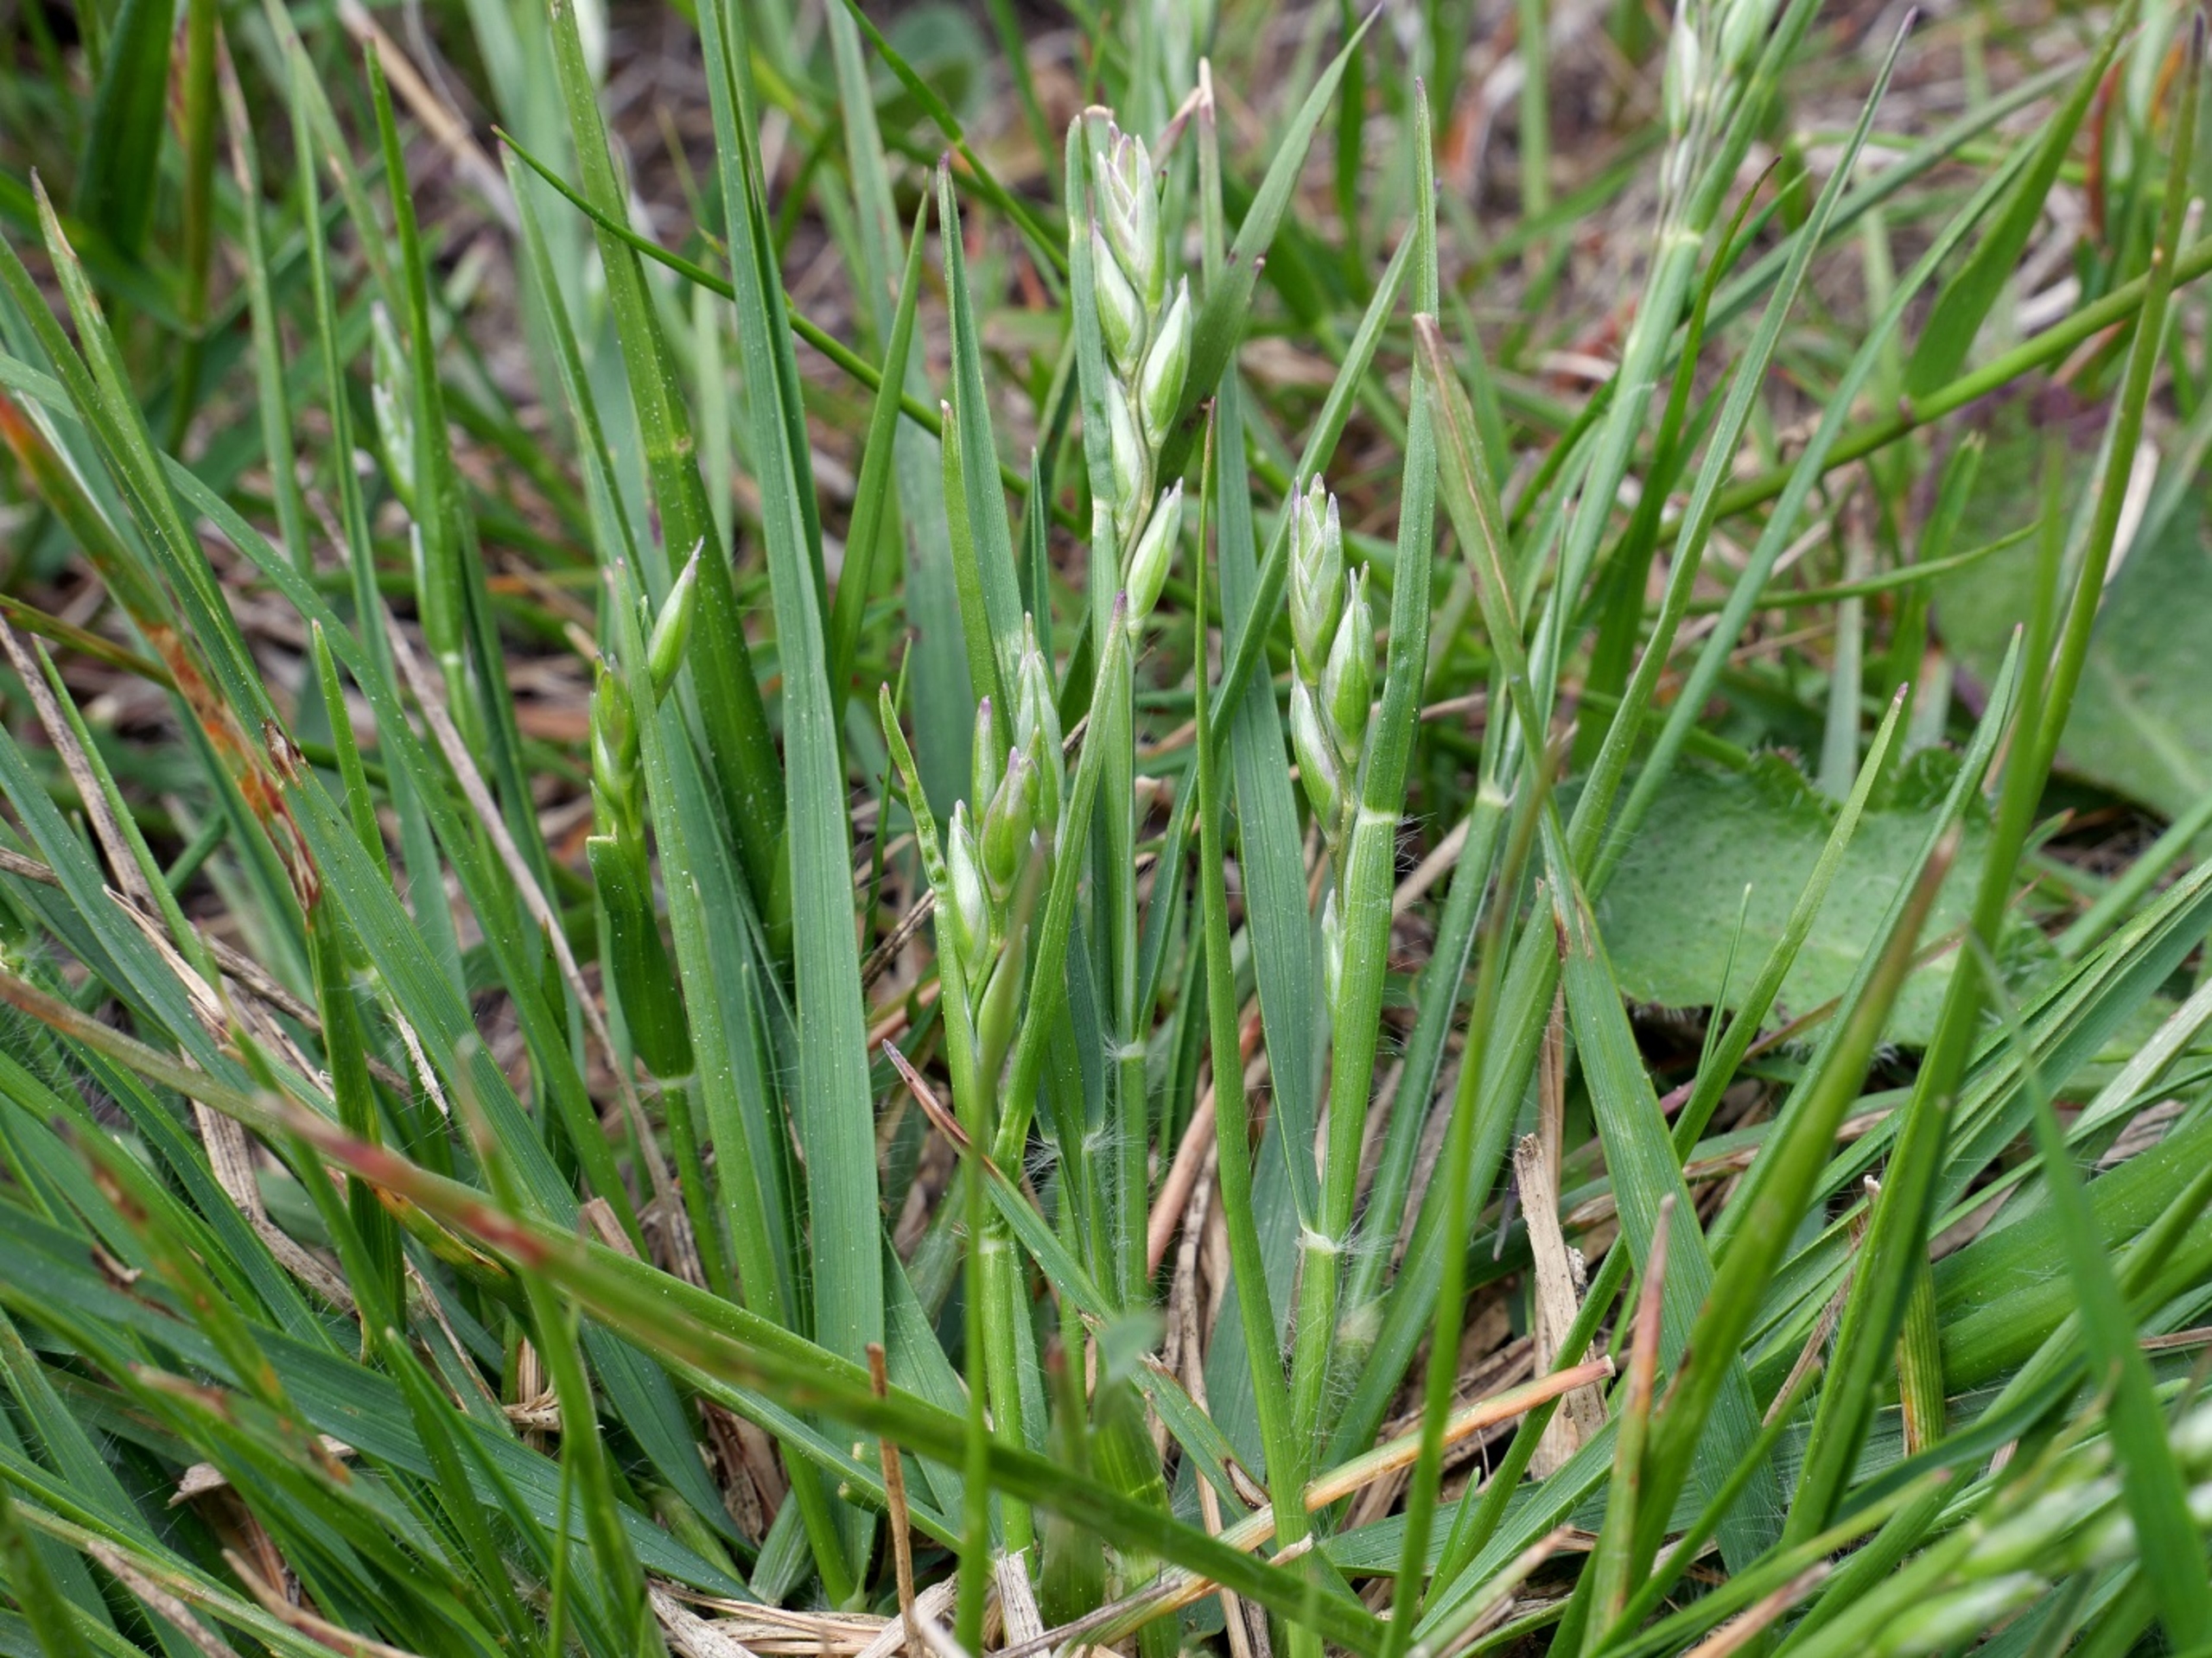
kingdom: Plantae
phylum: Tracheophyta
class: Liliopsida
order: Poales
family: Poaceae
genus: Danthonia
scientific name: Danthonia decumbens
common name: Tandbælg
